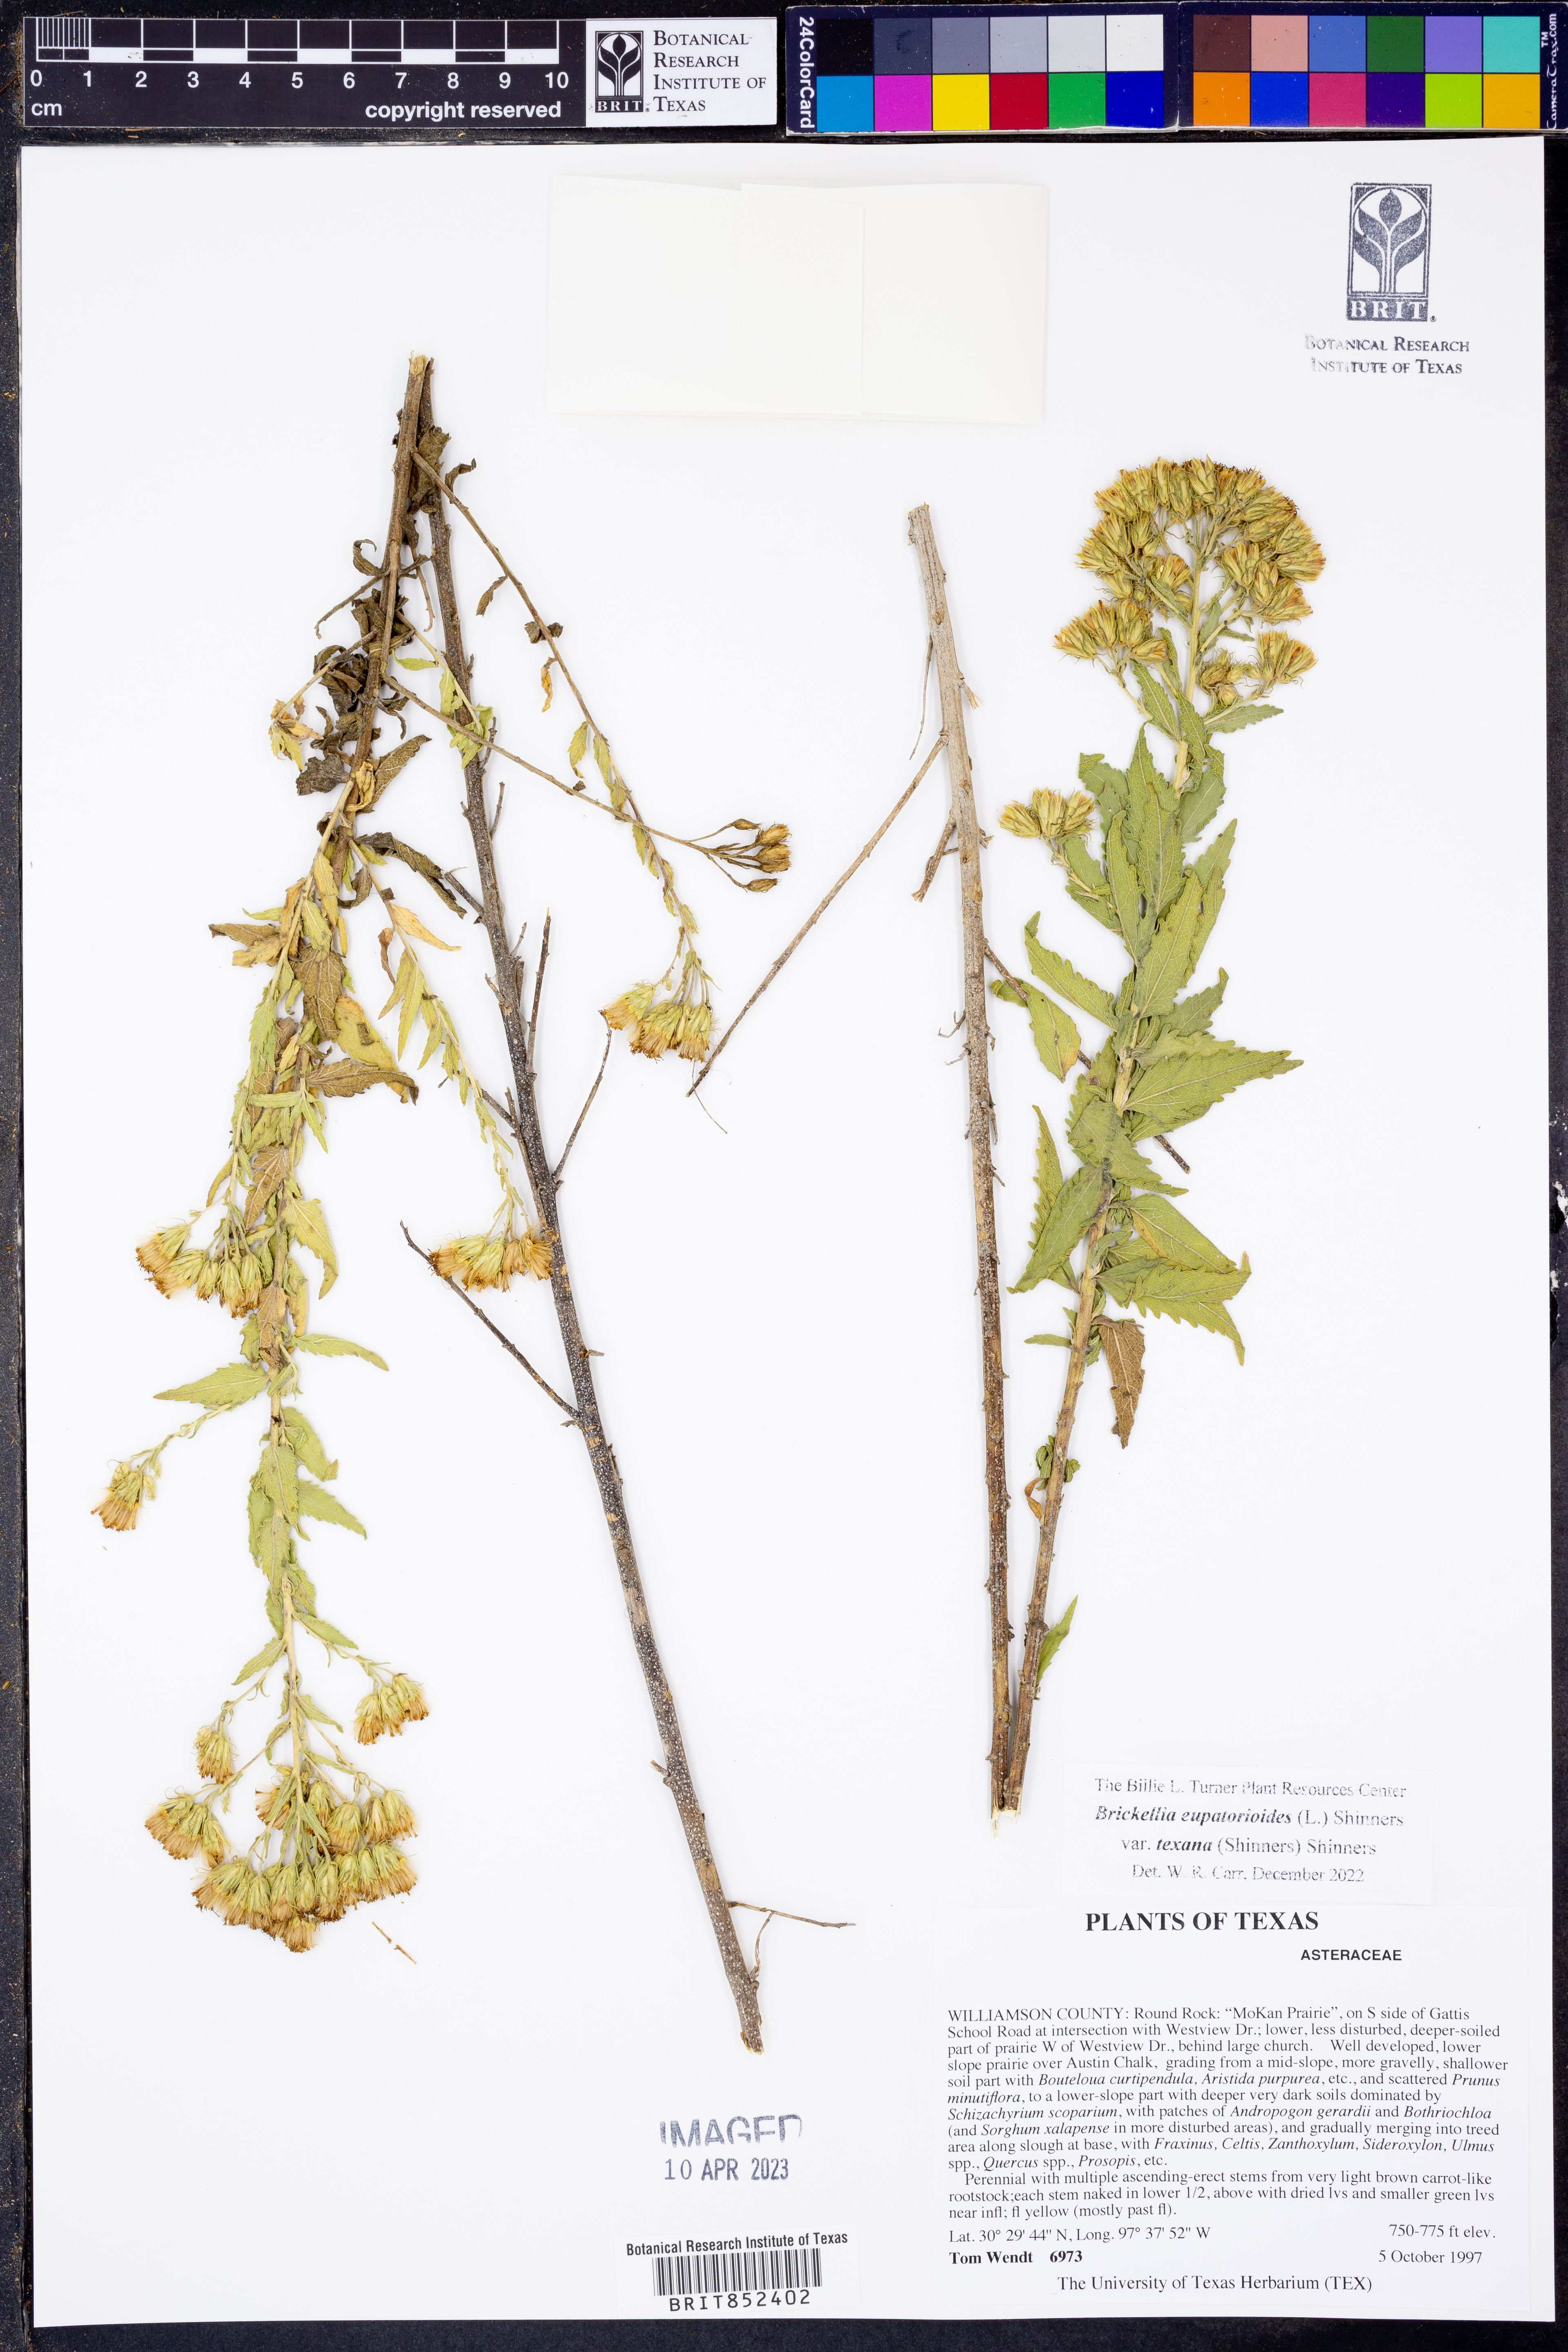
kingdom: Plantae
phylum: Tracheophyta
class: Magnoliopsida
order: Asterales
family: Asteraceae
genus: Brickellia
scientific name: Brickellia macranthra
